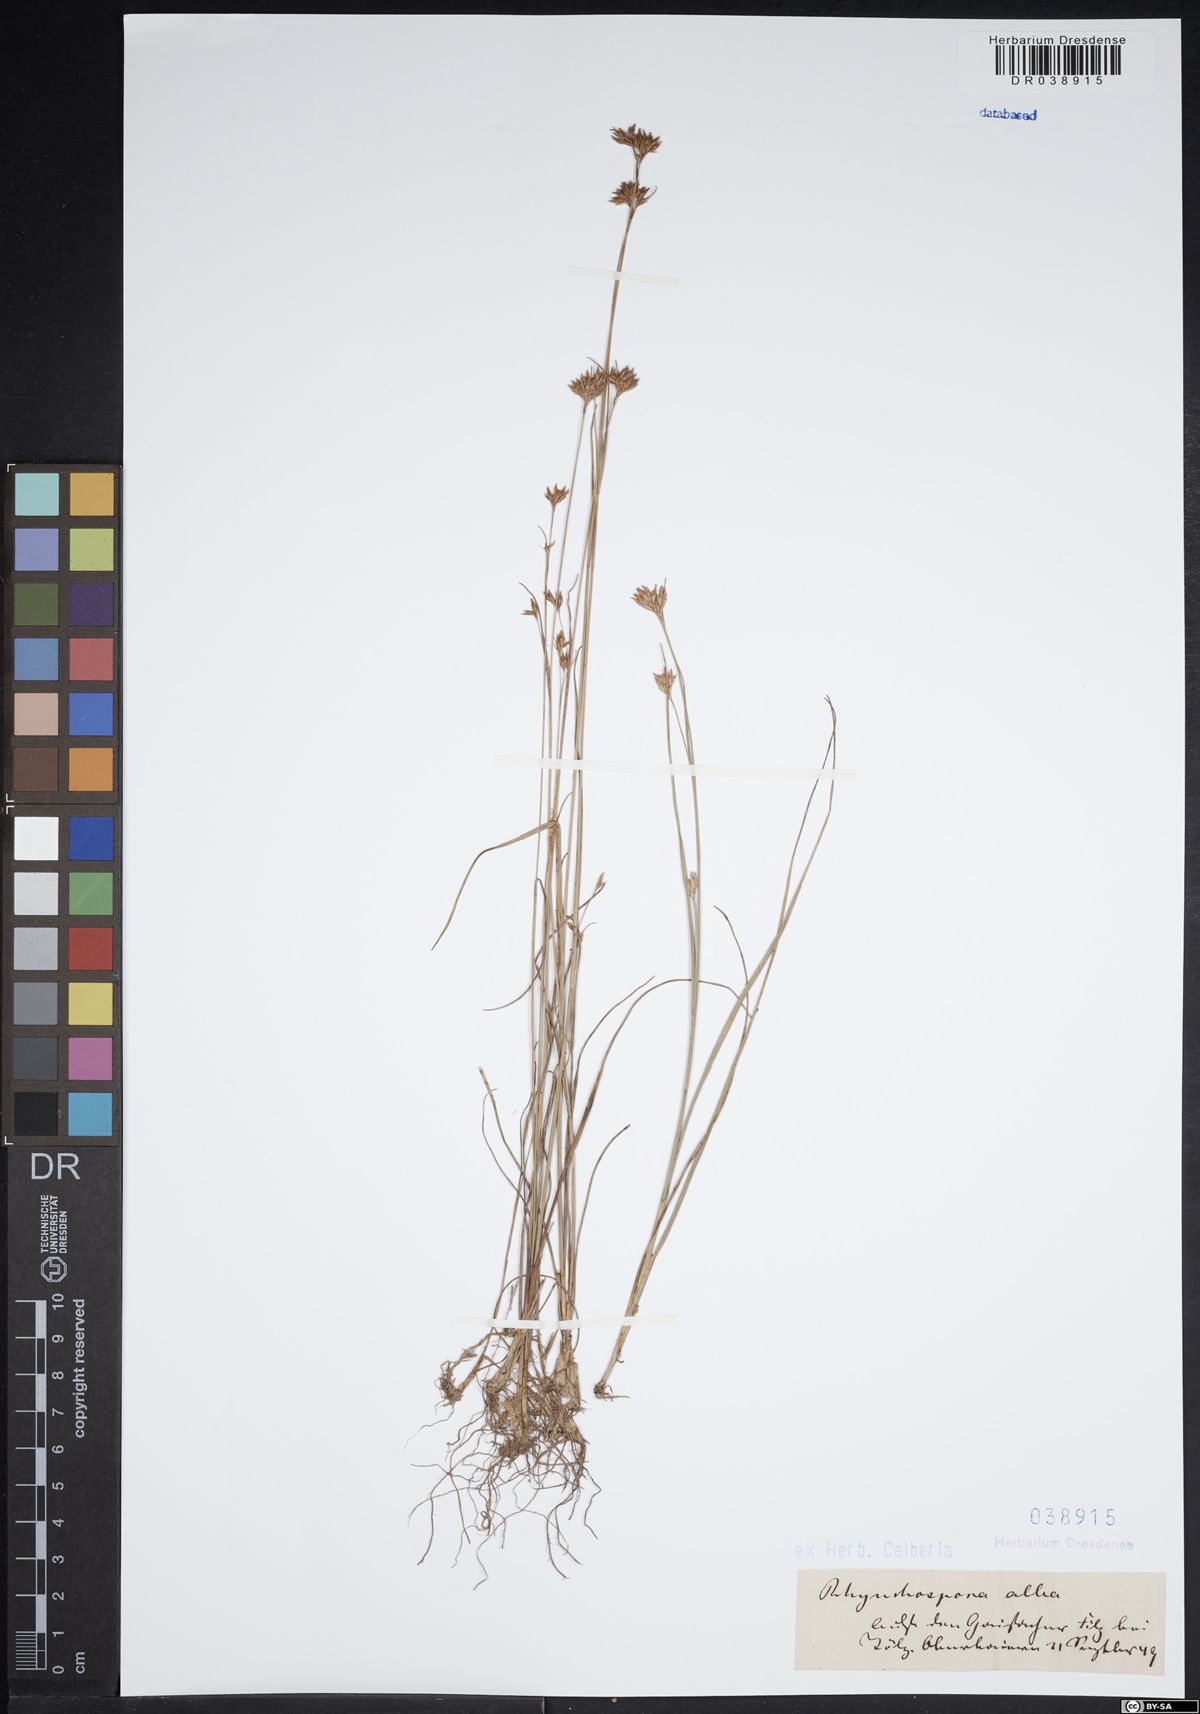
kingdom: Plantae
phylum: Tracheophyta
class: Liliopsida
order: Poales
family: Cyperaceae
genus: Rhynchospora
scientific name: Rhynchospora alba
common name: White beak-sedge
